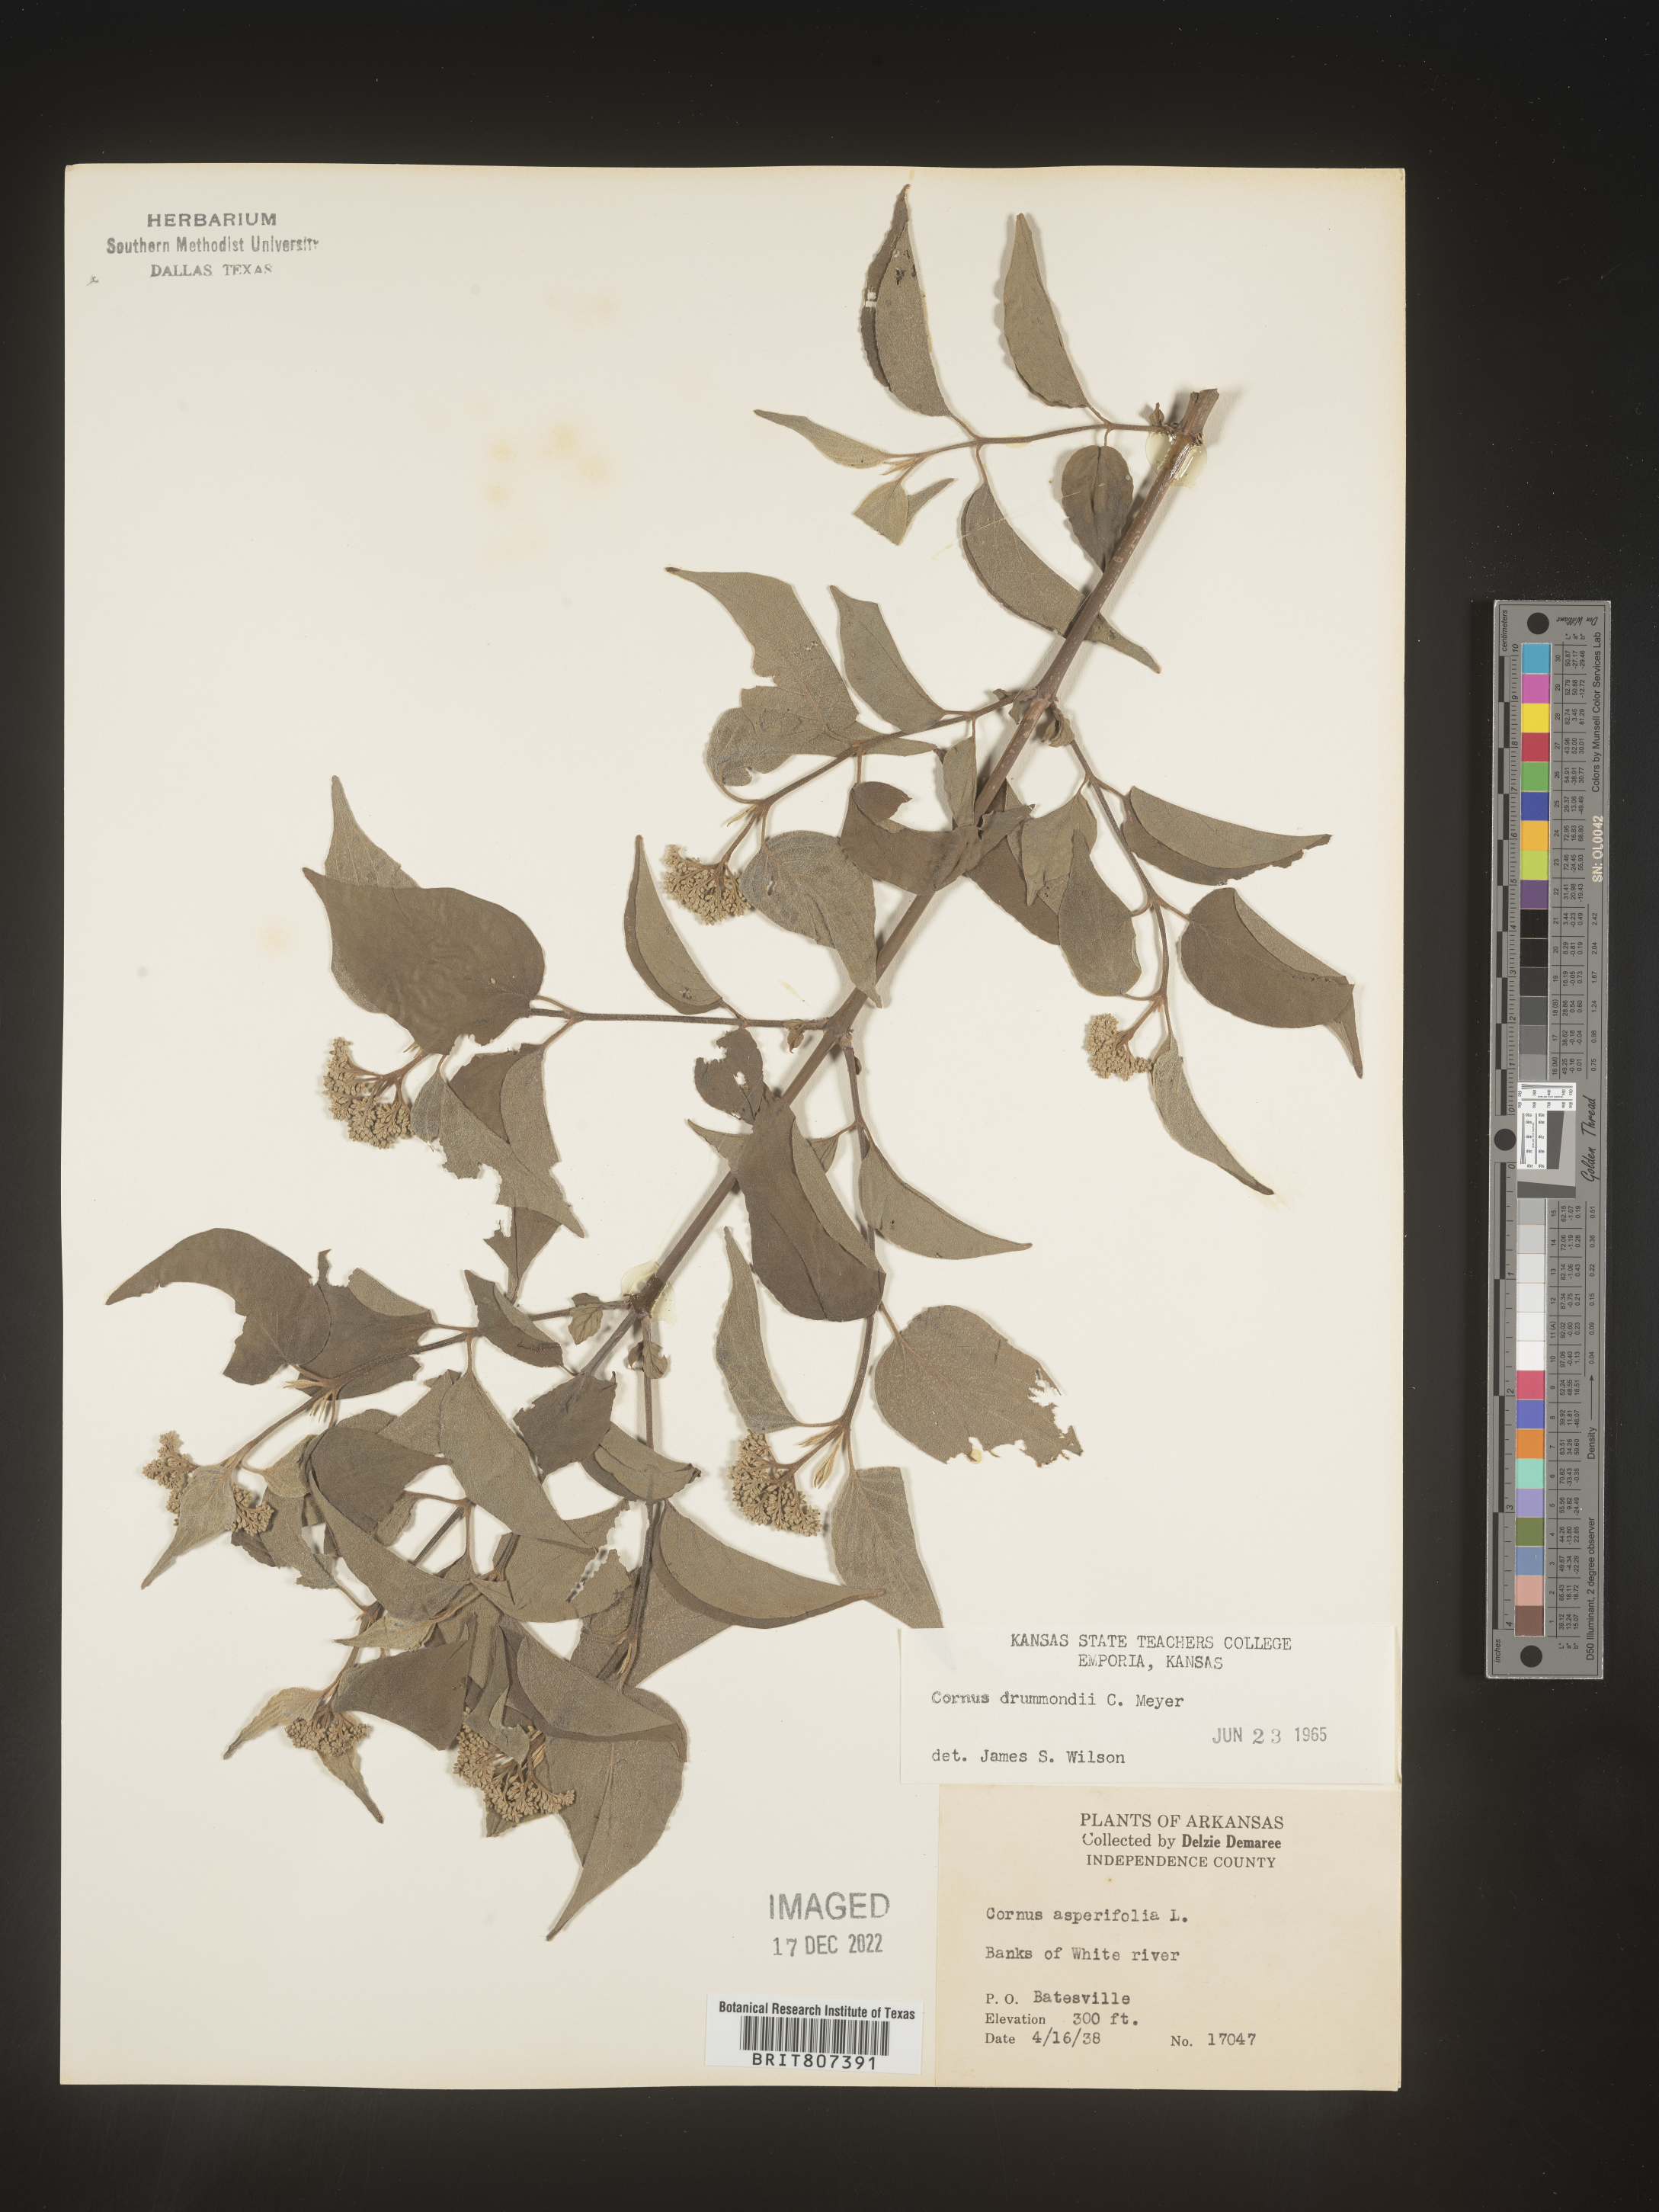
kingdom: Plantae
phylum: Tracheophyta
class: Magnoliopsida
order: Cornales
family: Cornaceae
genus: Cornus
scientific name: Cornus drummondii
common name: Rough-leaf dogwood
